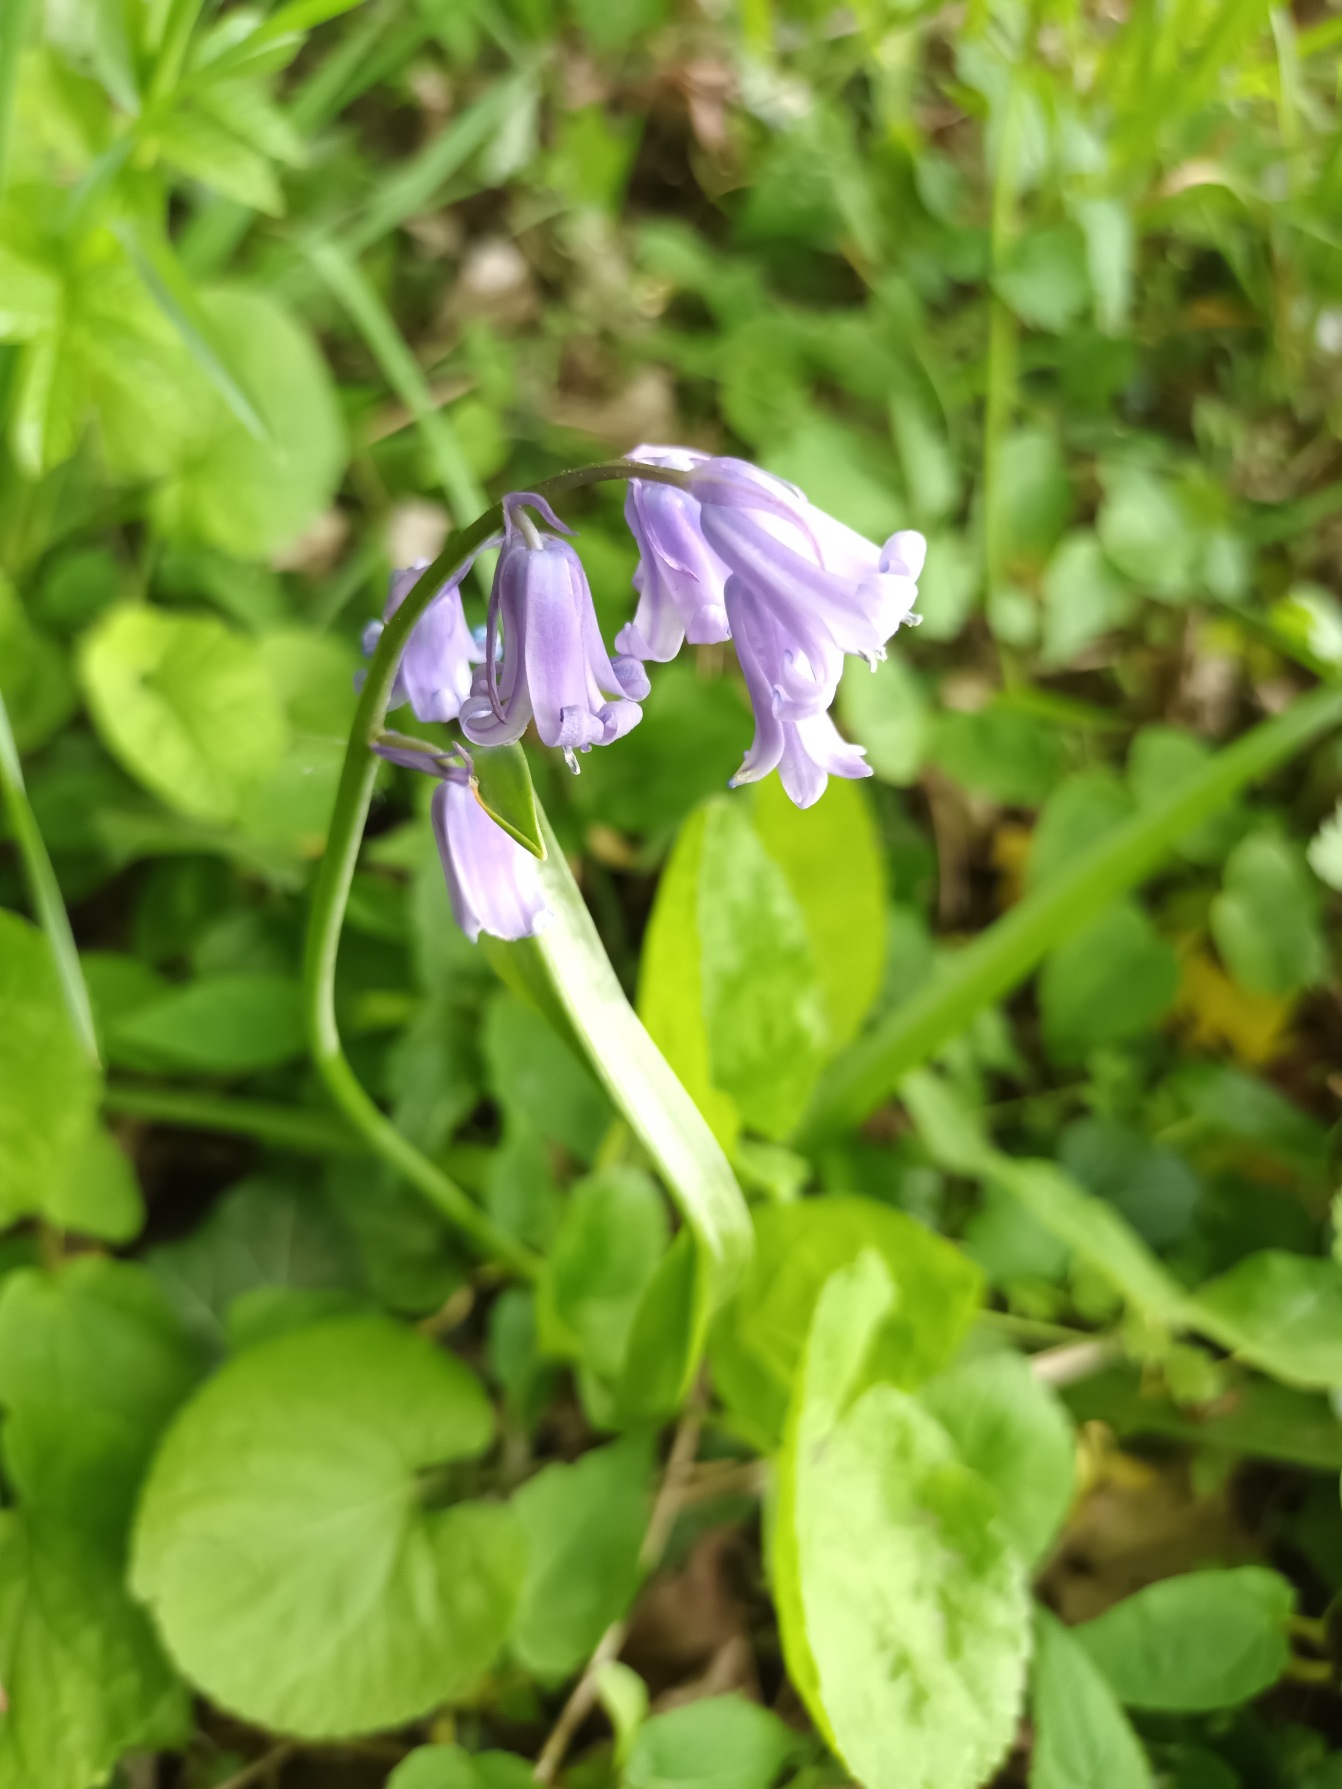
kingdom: Plantae
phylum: Tracheophyta
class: Liliopsida
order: Asparagales
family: Asparagaceae
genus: Hyacinthoides
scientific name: Hyacinthoides massartiana
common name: Hybrid-klokkeskilla
